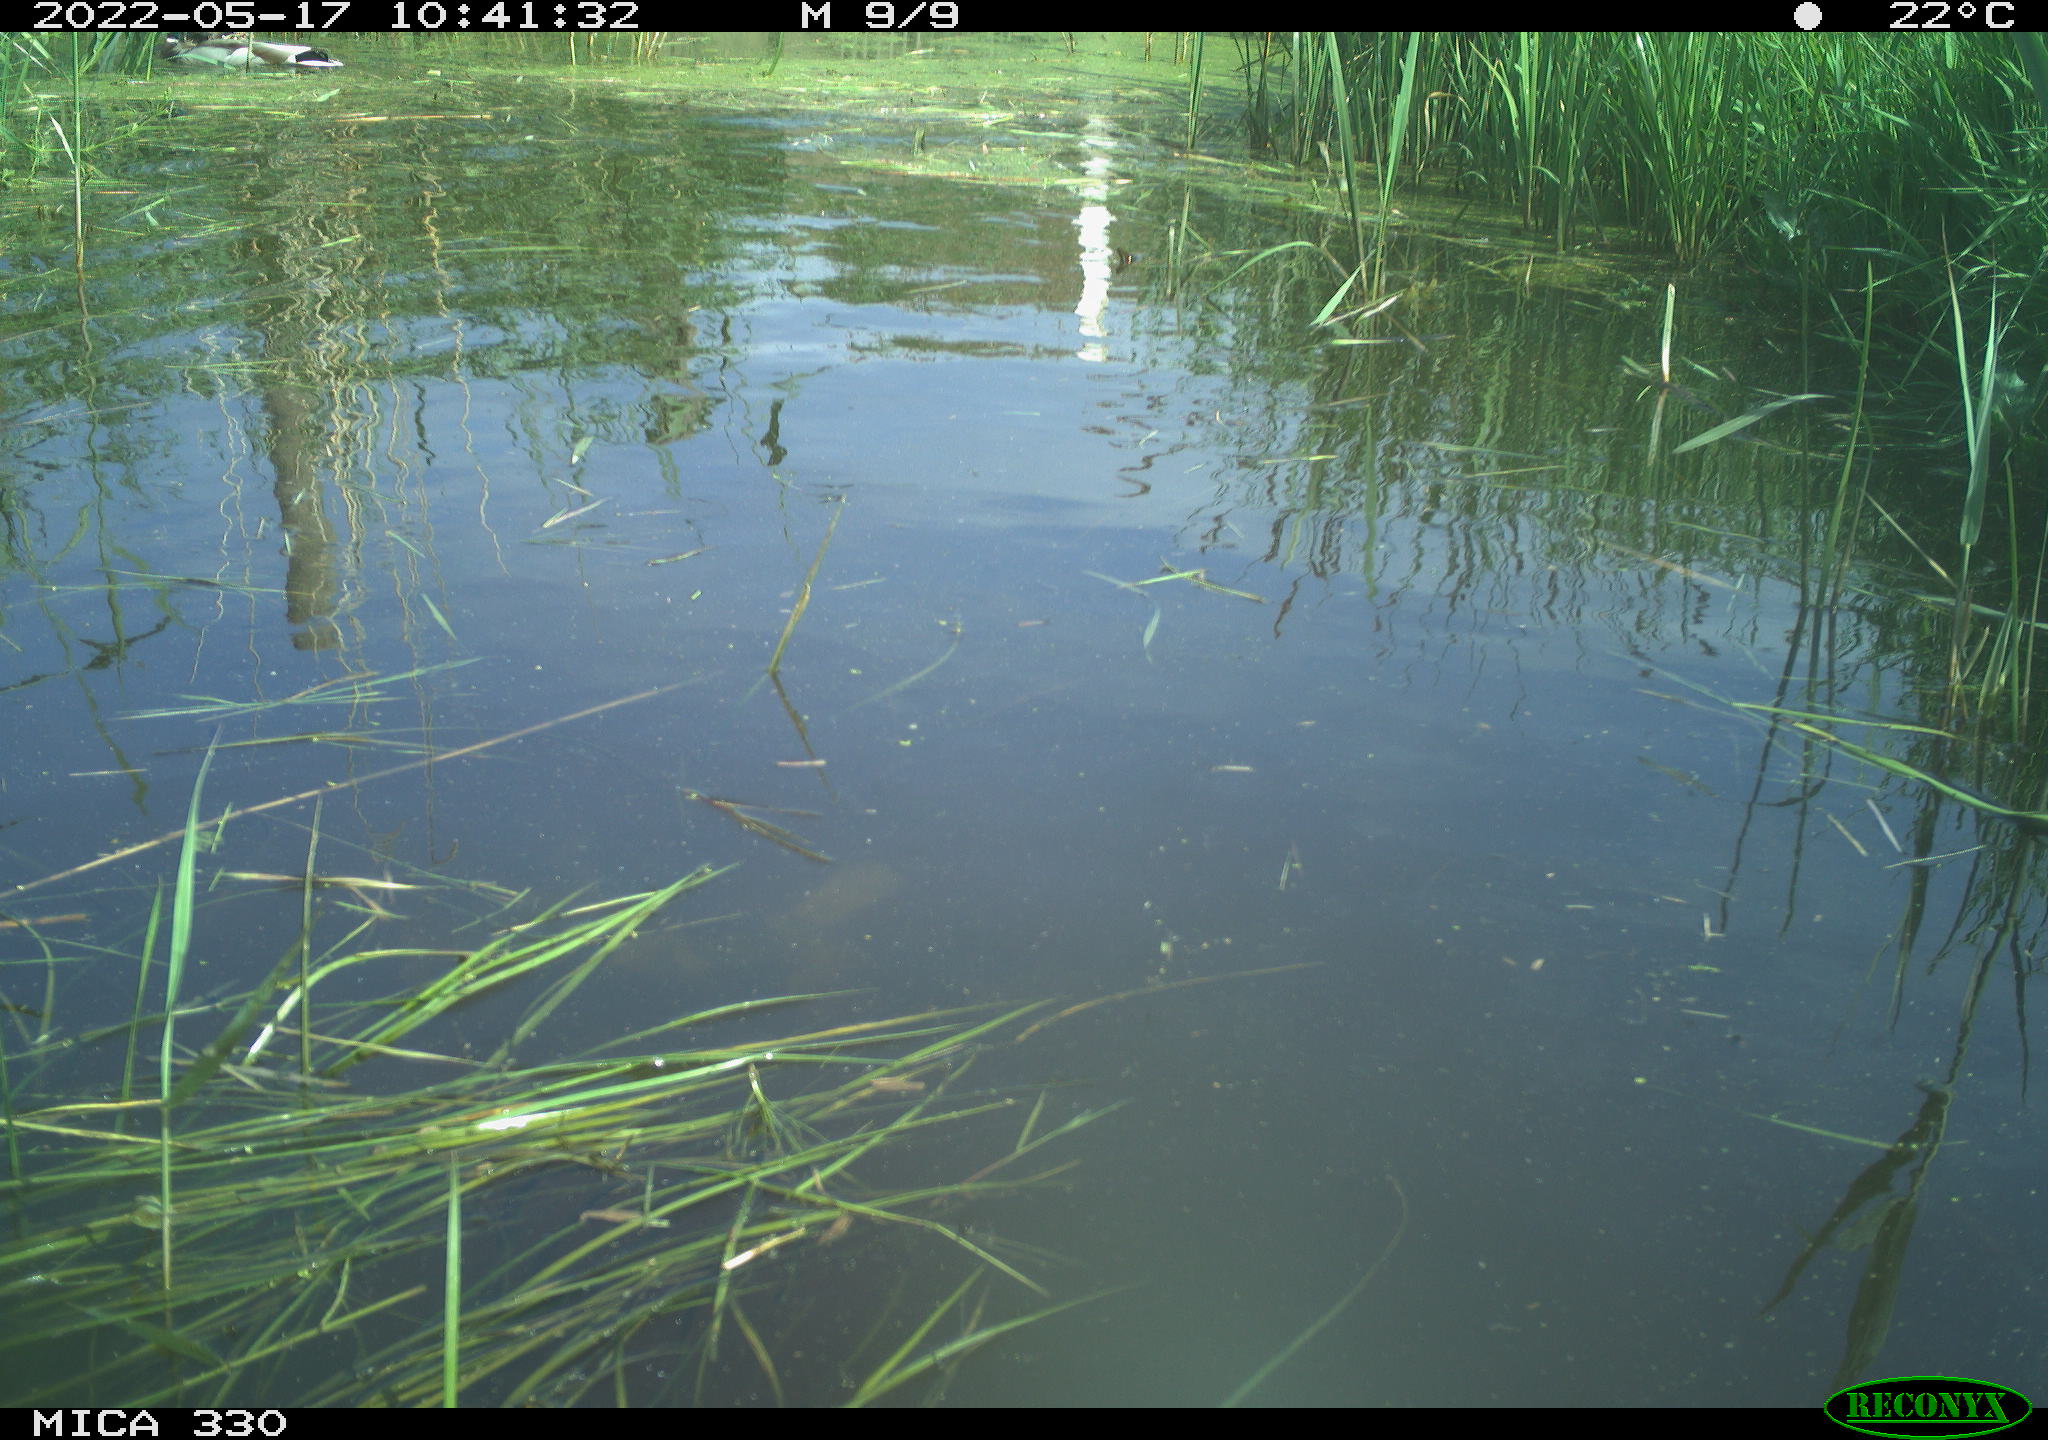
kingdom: Animalia
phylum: Chordata
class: Aves
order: Anseriformes
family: Anatidae
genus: Anas
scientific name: Anas platyrhynchos
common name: Mallard
